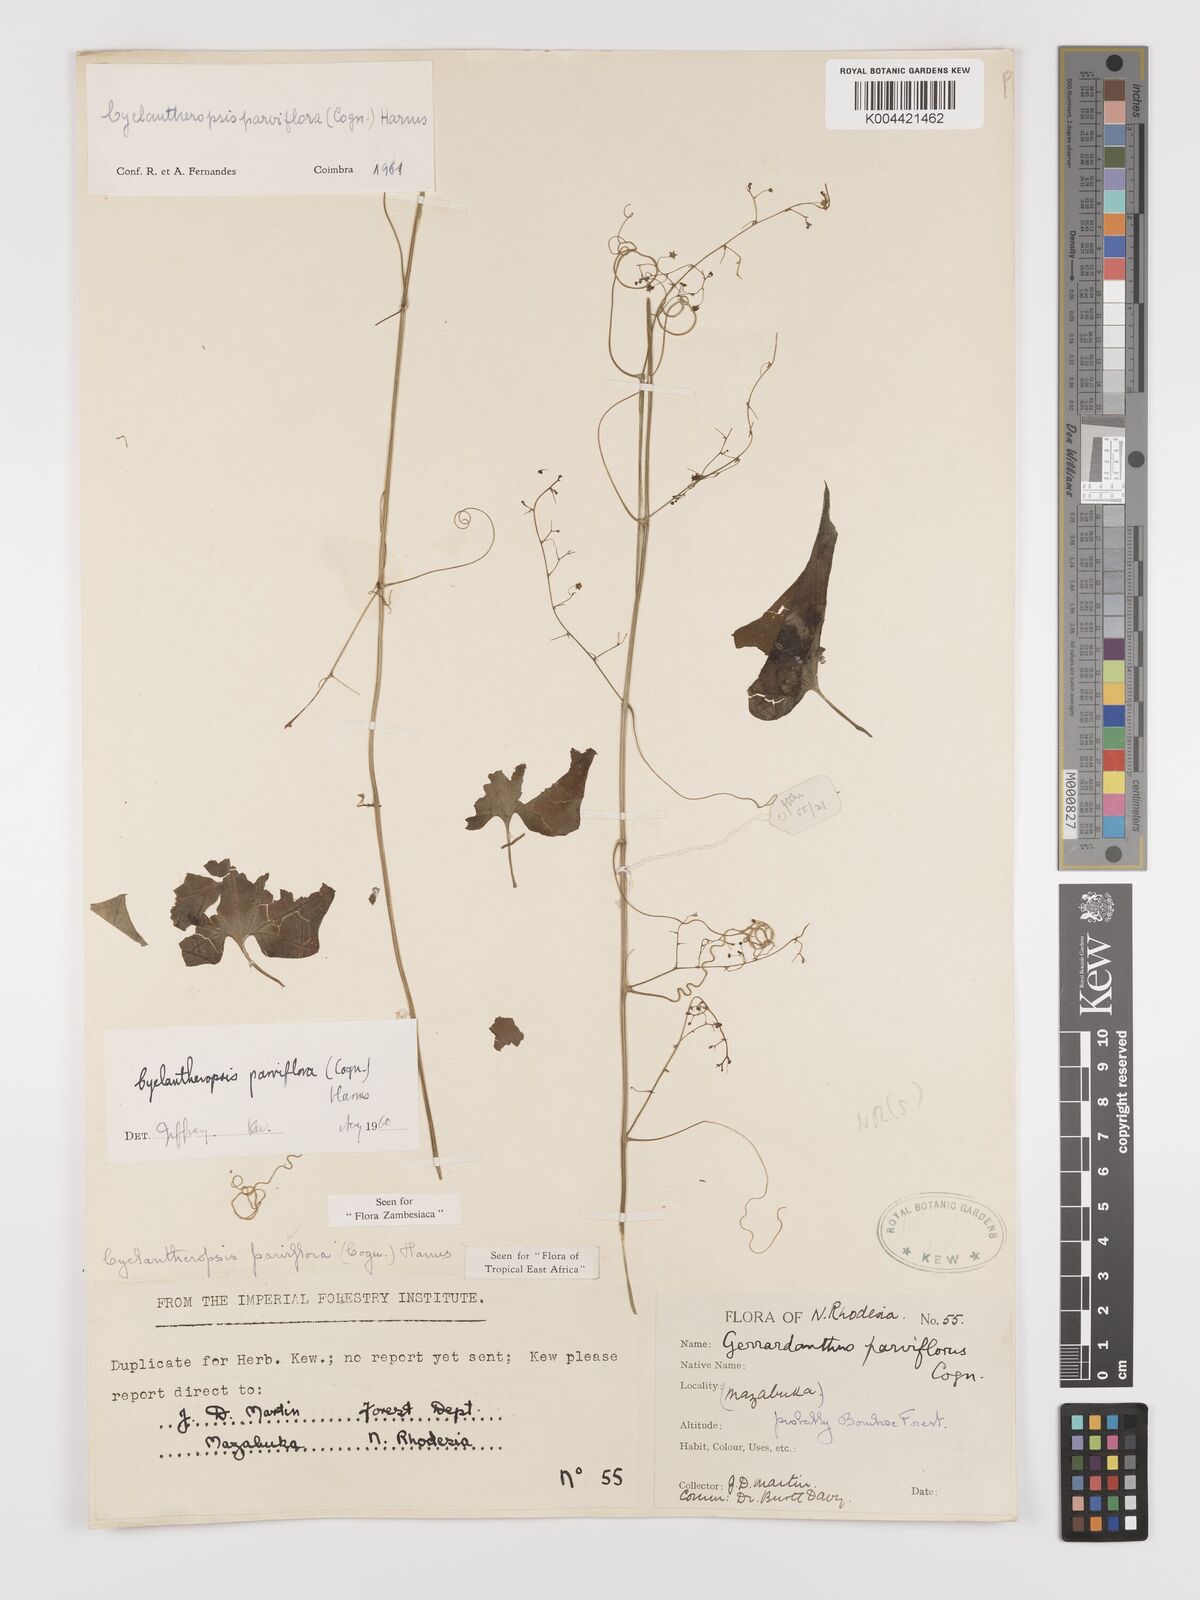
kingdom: Plantae
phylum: Tracheophyta
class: Magnoliopsida
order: Cucurbitales
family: Cucurbitaceae
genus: Cyclantheropsis
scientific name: Cyclantheropsis parviflora
